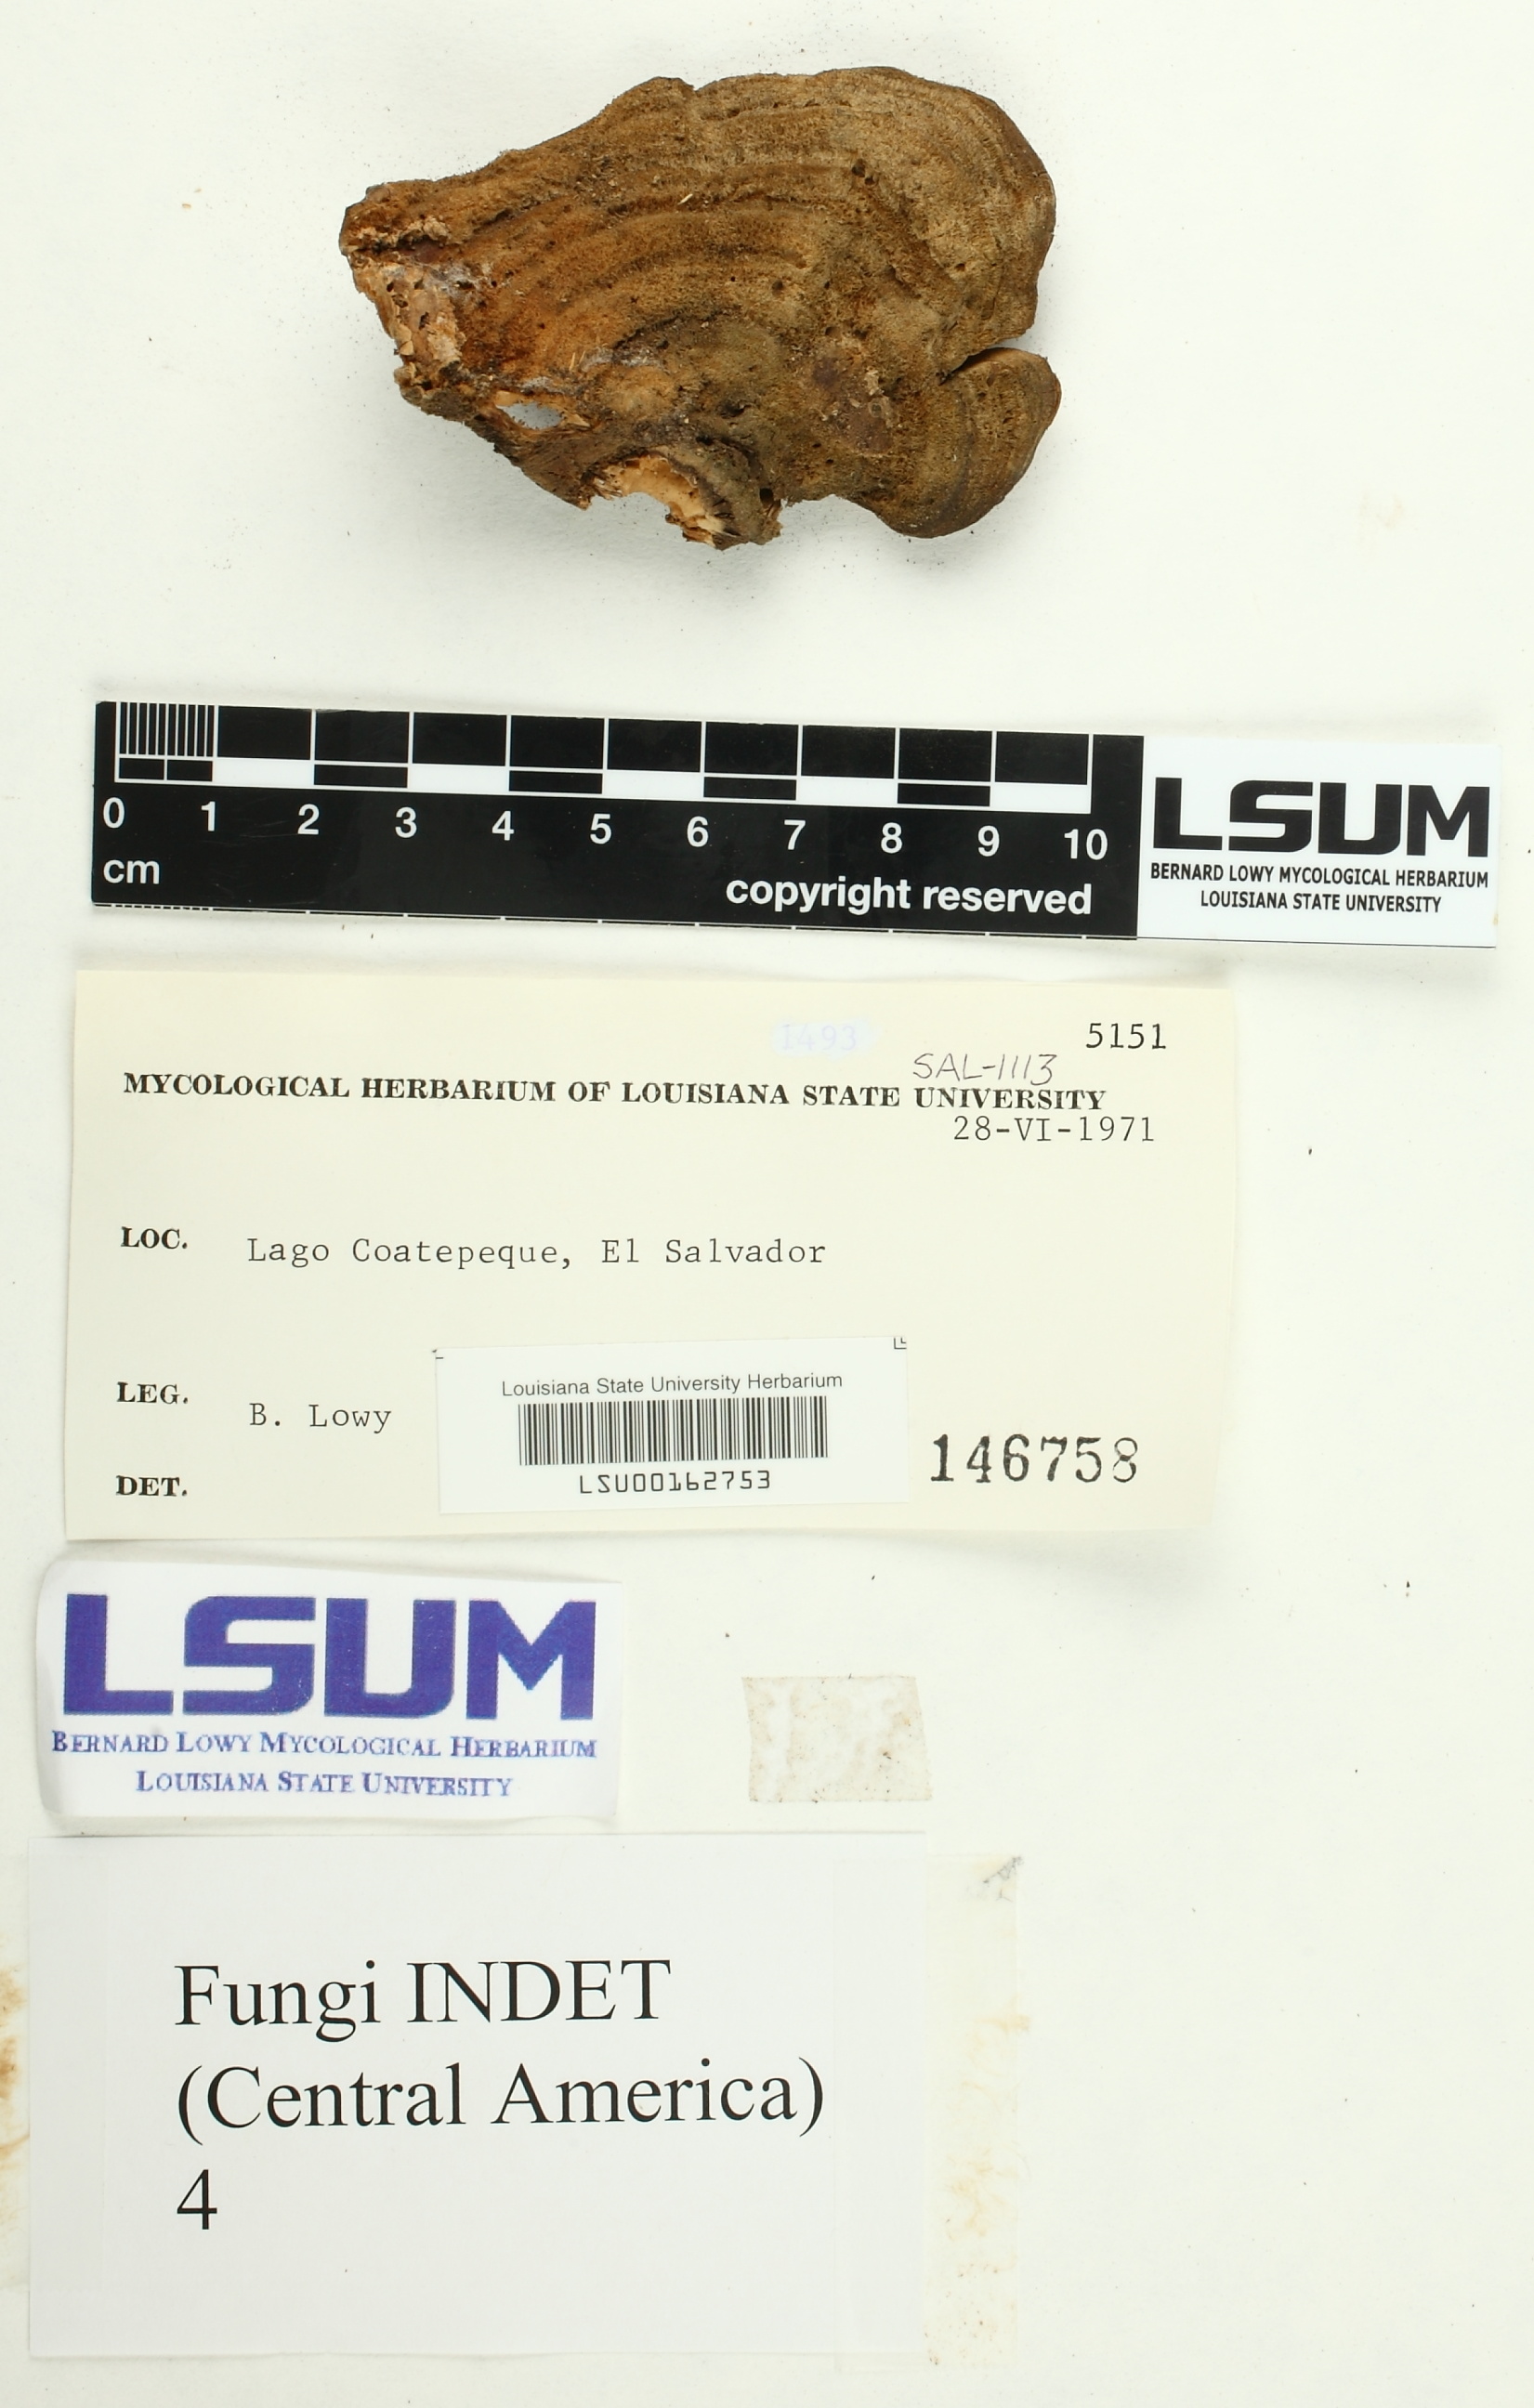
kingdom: Fungi
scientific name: Fungi
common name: Fungi
